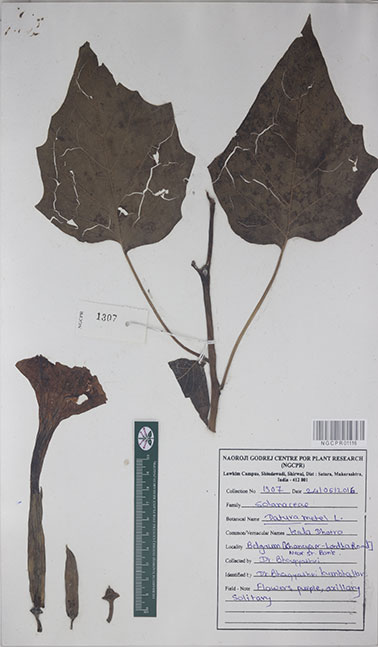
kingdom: Plantae
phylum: Tracheophyta
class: Magnoliopsida
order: Solanales
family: Solanaceae
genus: Datura
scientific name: Datura metel
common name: Jimsonweed
